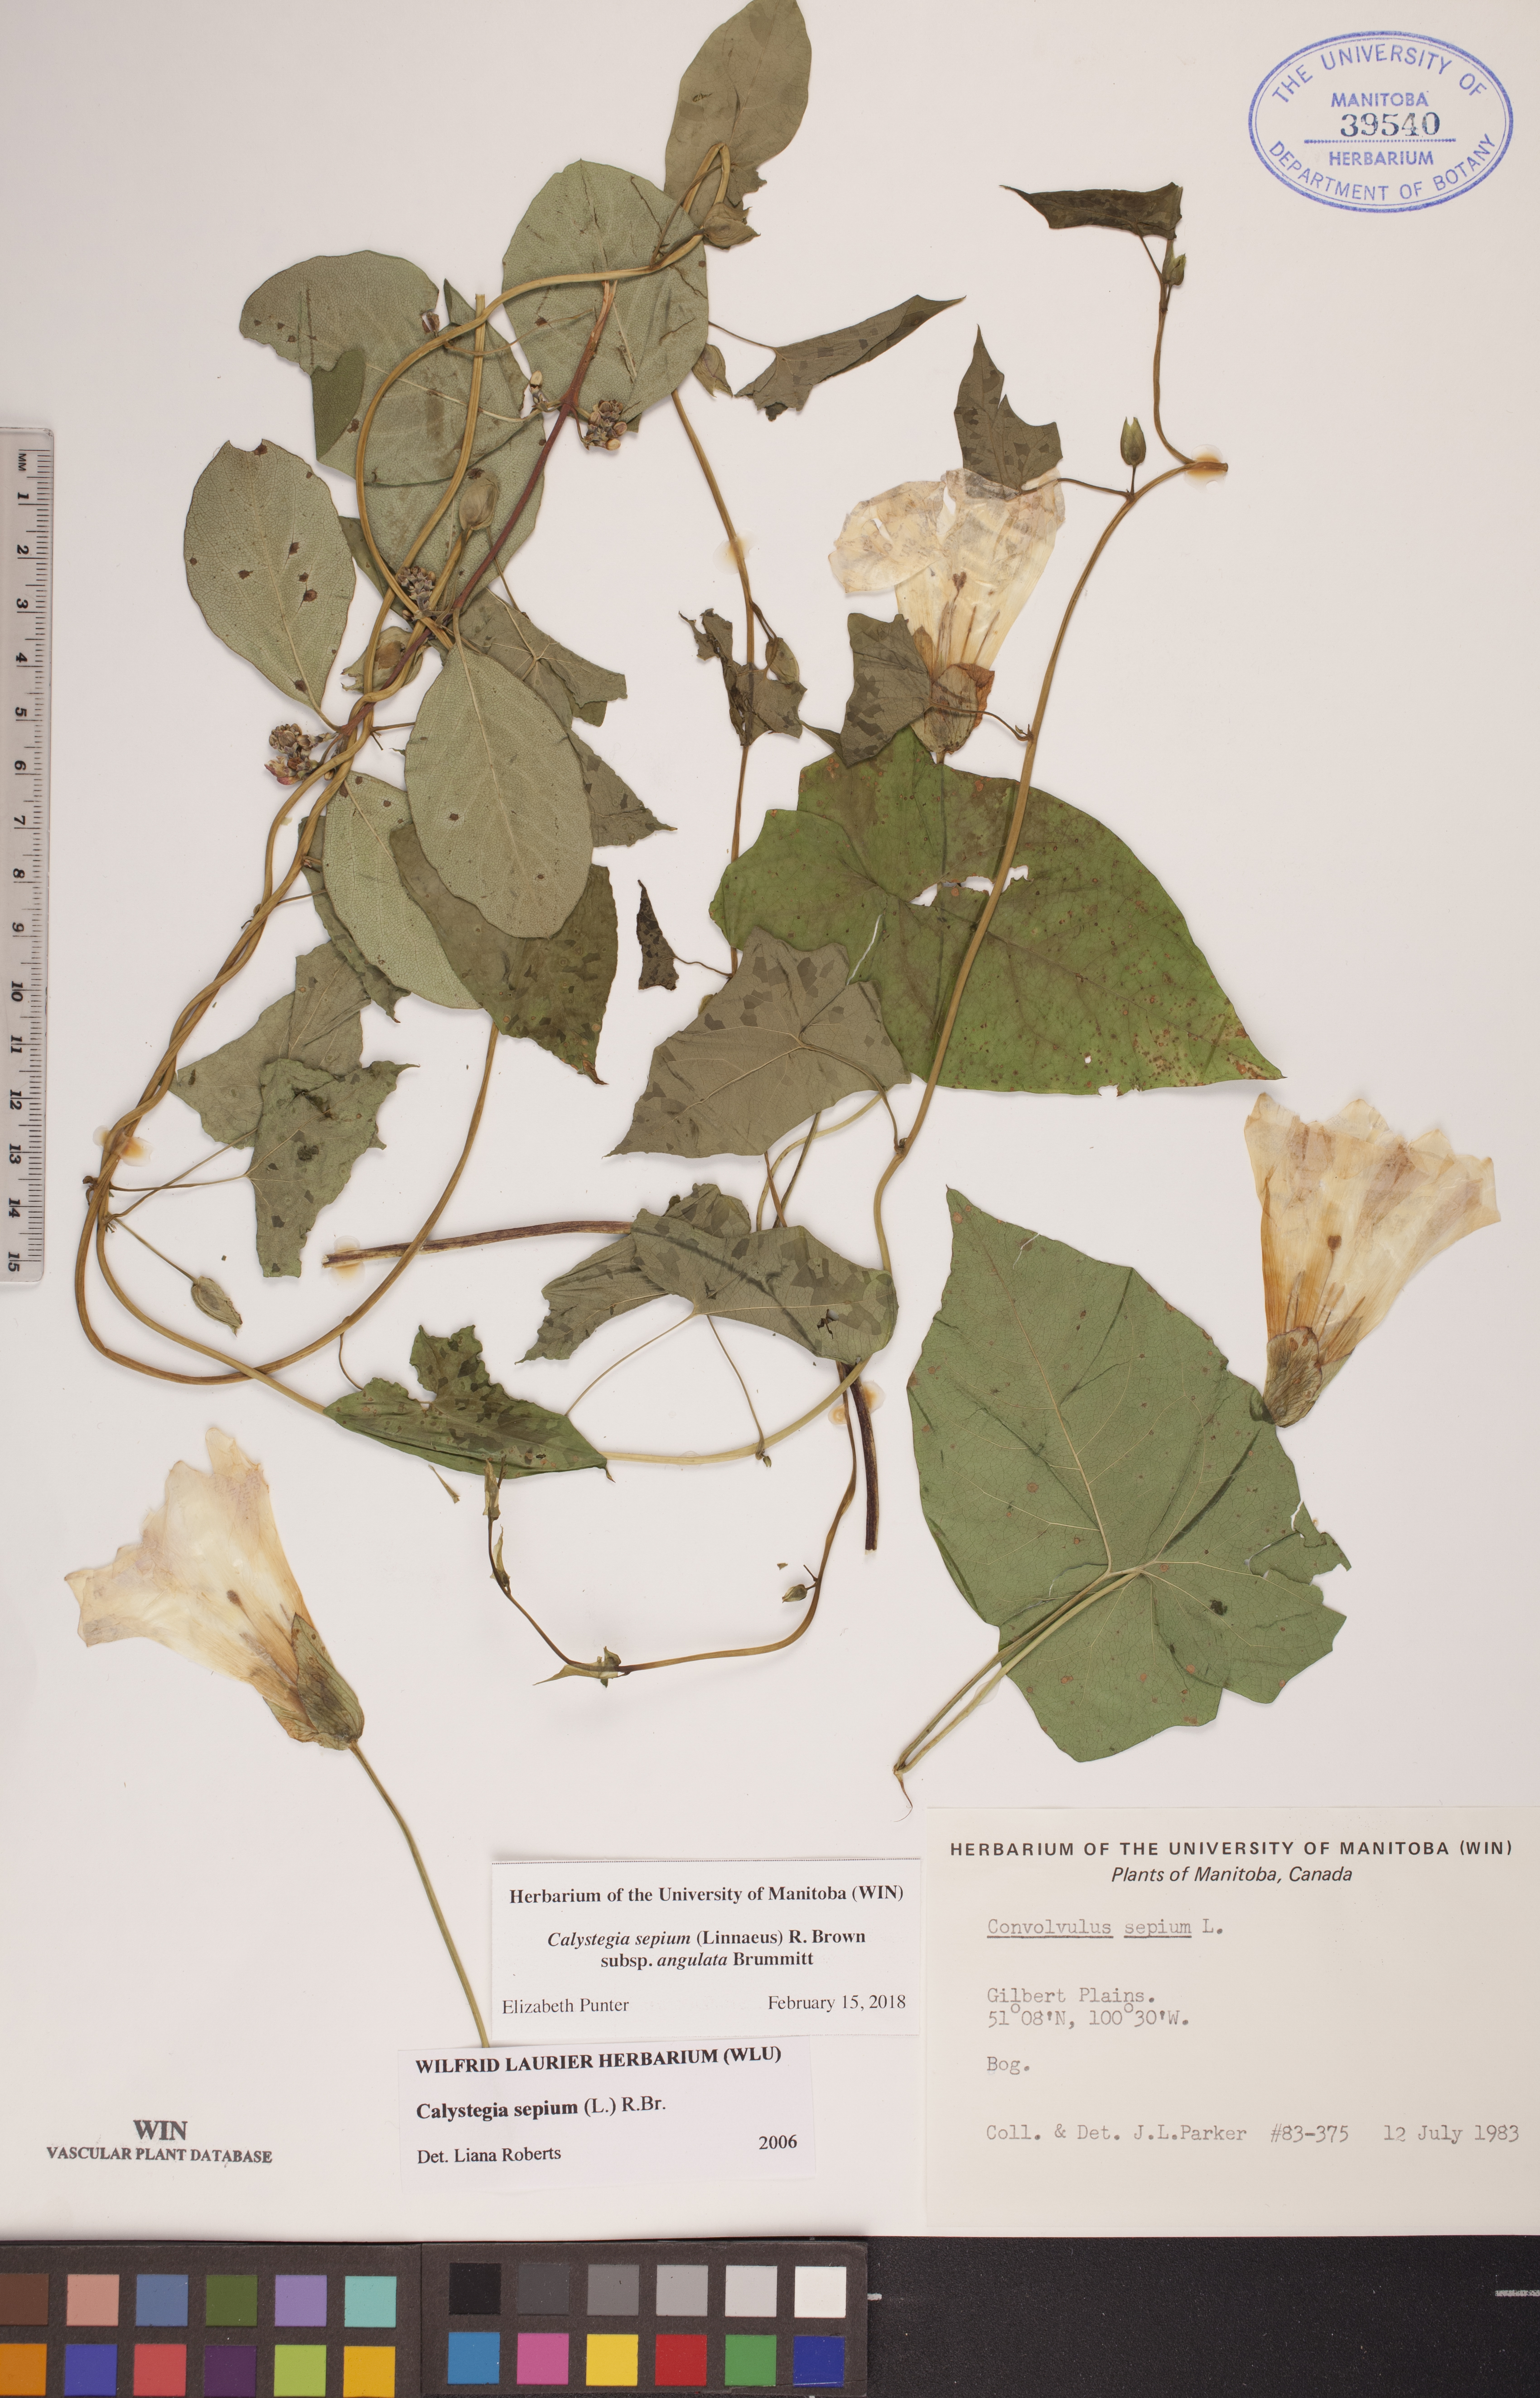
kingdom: Plantae
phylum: Tracheophyta
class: Magnoliopsida
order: Solanales
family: Convolvulaceae
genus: Calystegia
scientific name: Calystegia sepium
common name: Hedge bindweed
